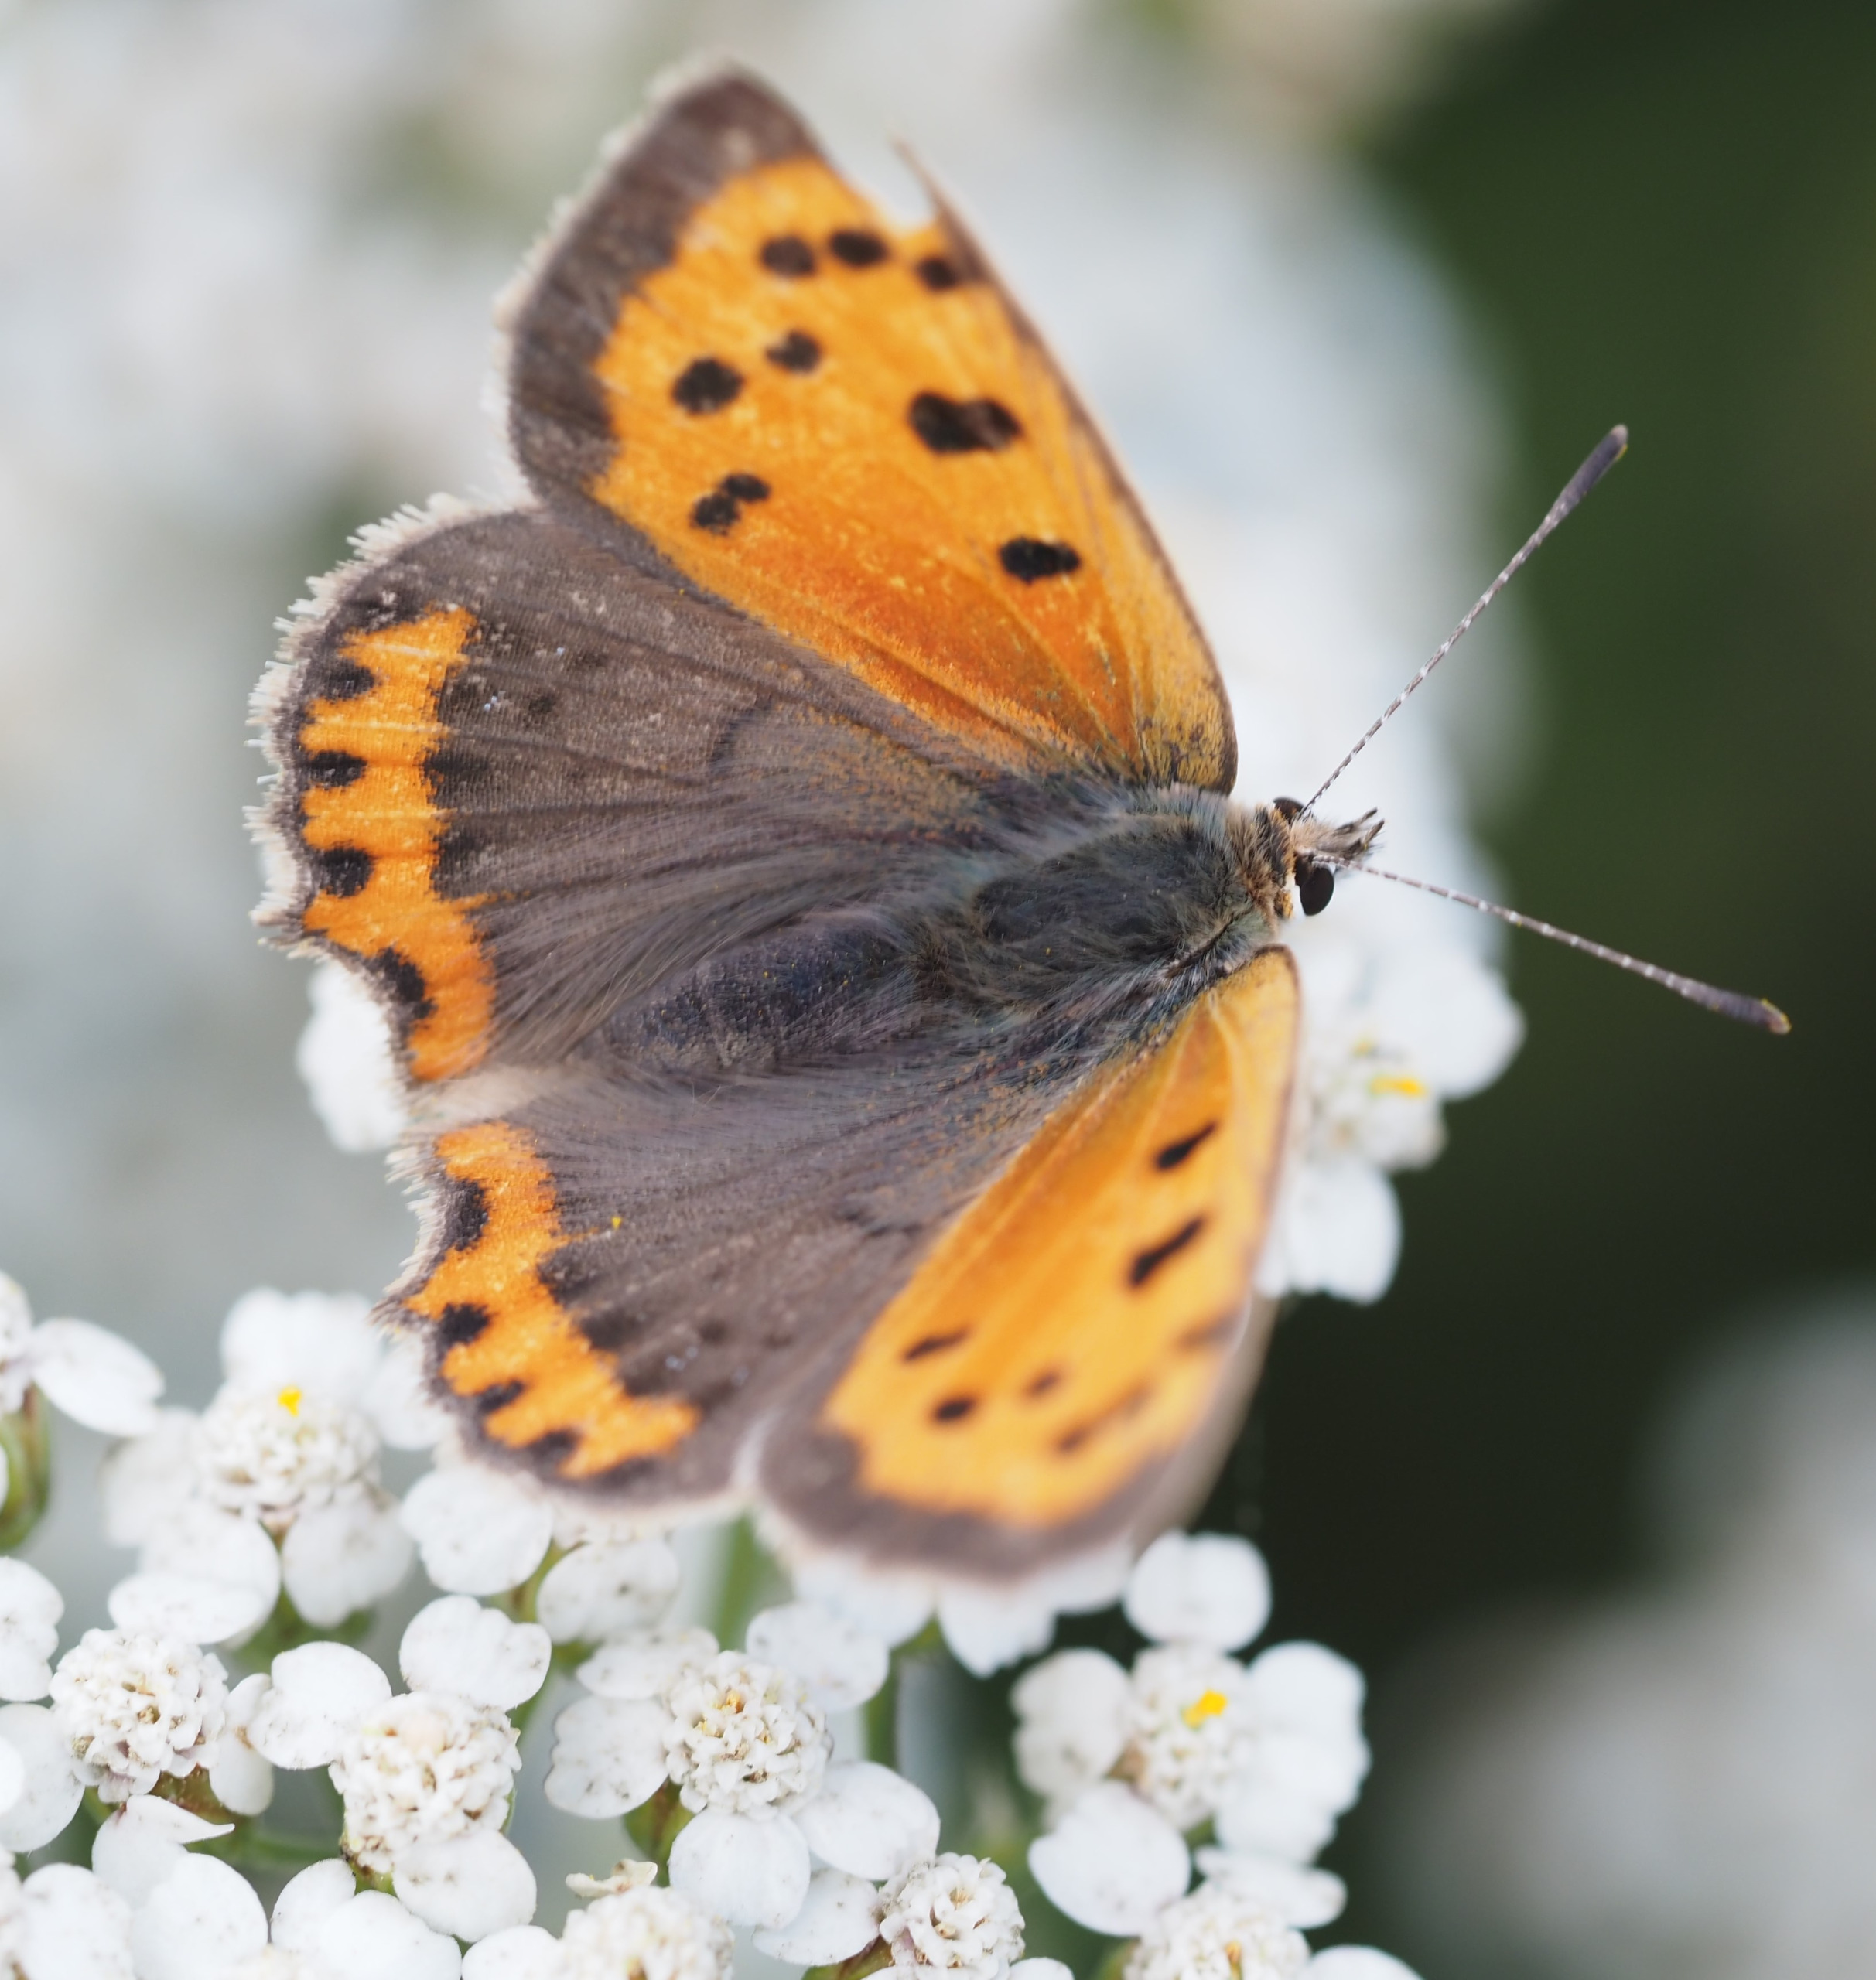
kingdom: Animalia
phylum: Arthropoda
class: Insecta
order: Lepidoptera
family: Lycaenidae
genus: Lycaena
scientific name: Lycaena phlaeas
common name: Lille ildfugl
